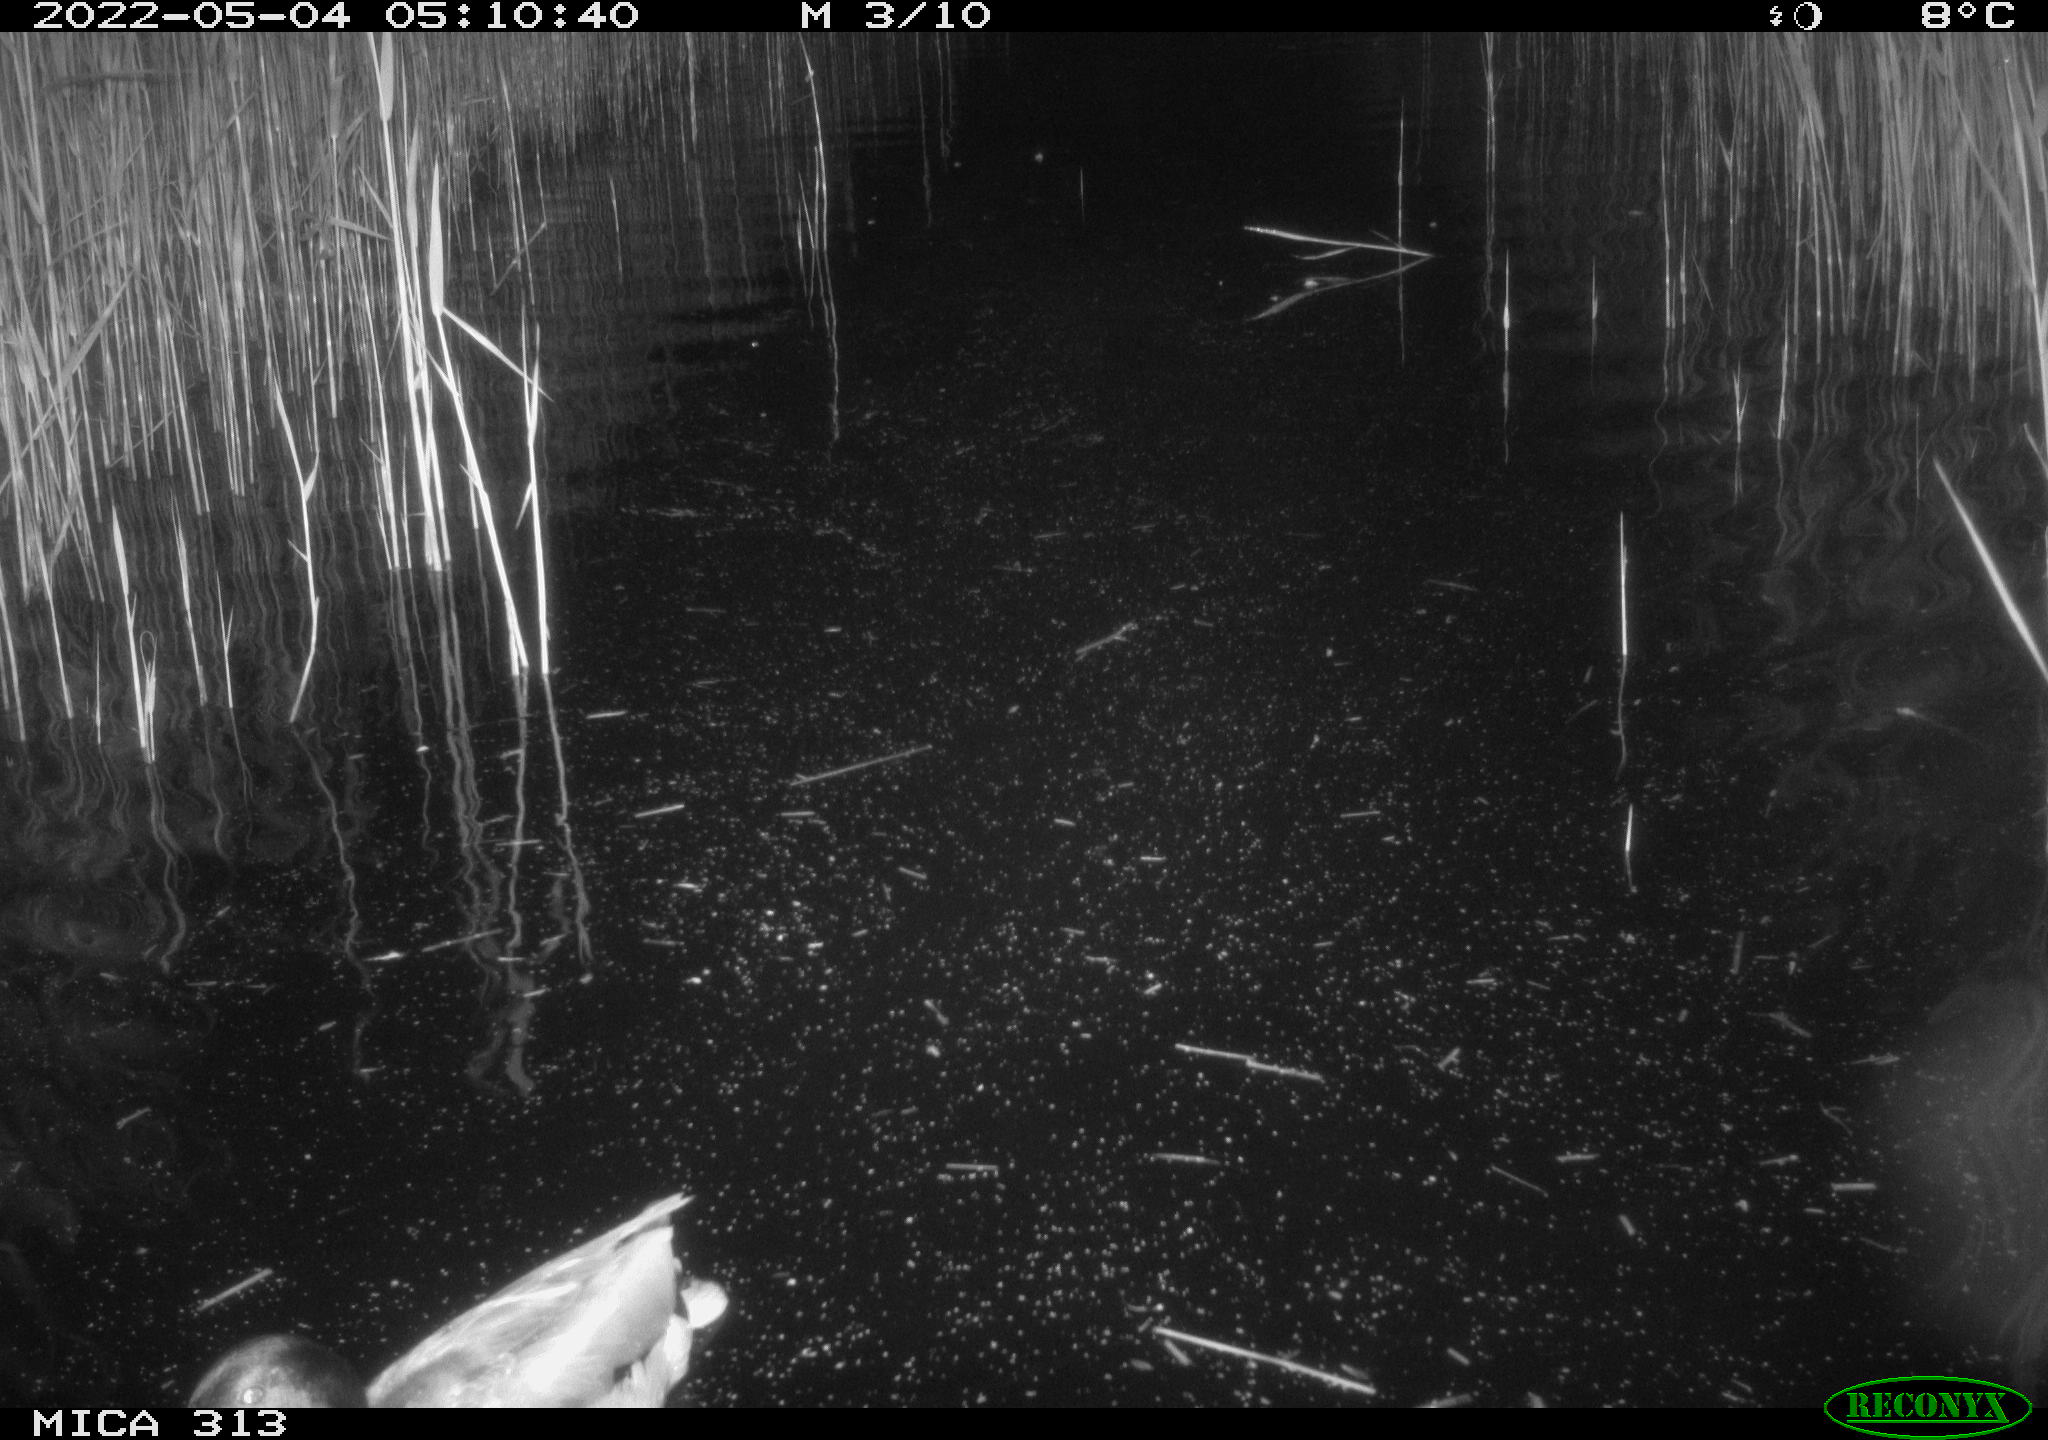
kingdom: Animalia
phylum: Chordata
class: Aves
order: Anseriformes
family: Anatidae
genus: Anas
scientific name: Anas platyrhynchos
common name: Mallard
